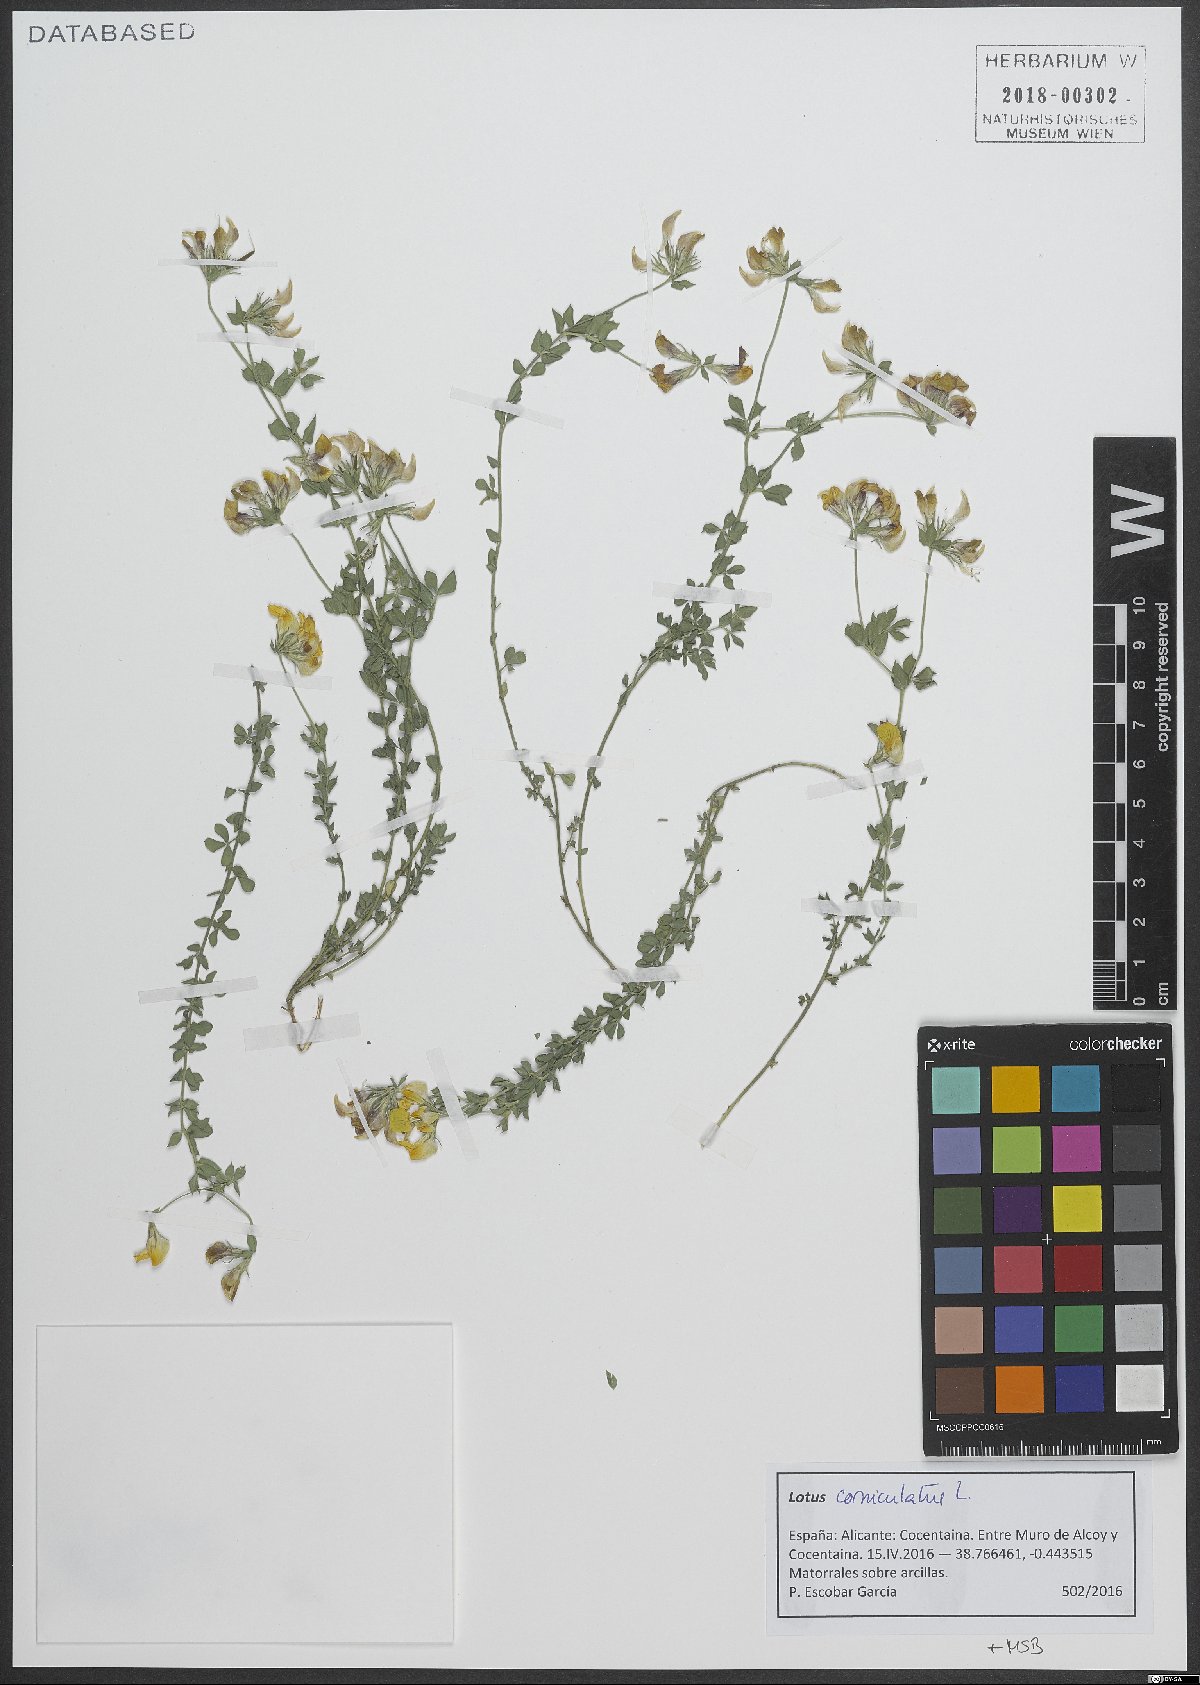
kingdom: Plantae
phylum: Tracheophyta
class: Magnoliopsida
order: Fabales
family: Fabaceae
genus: Lotus
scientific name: Lotus corniculatus
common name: Common bird's-foot-trefoil
